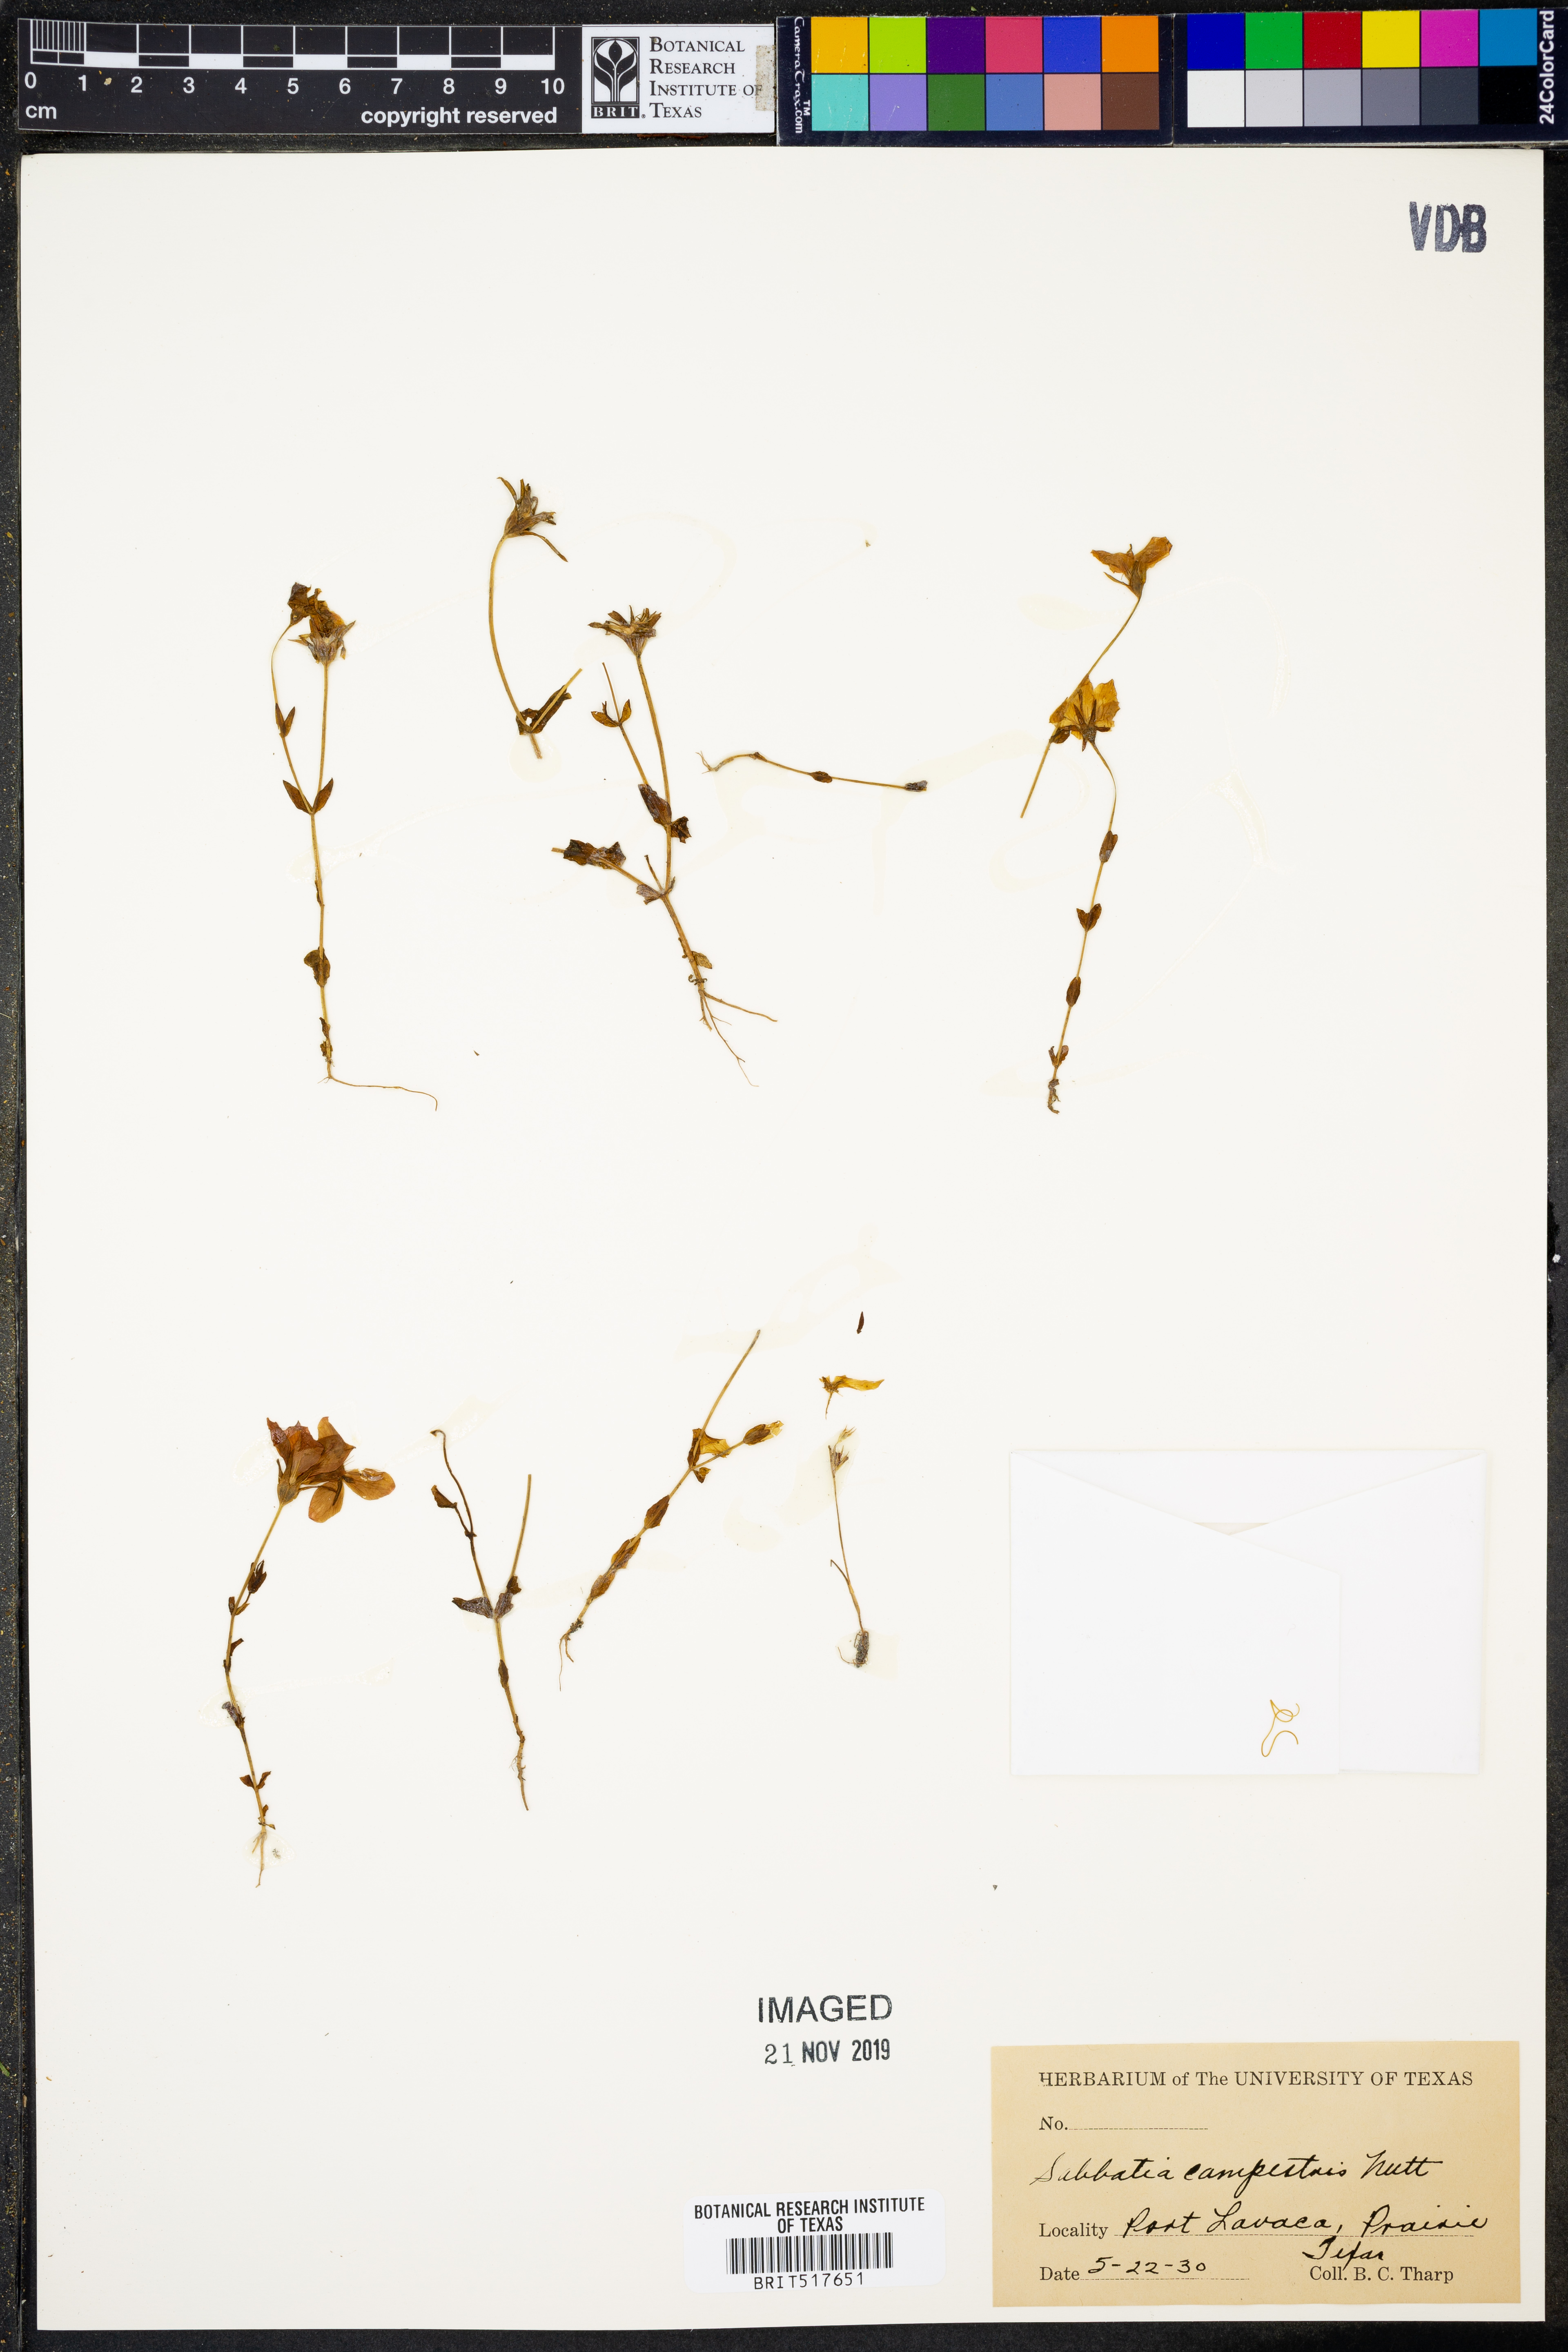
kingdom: Plantae
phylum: Tracheophyta
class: Magnoliopsida
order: Gentianales
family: Gentianaceae
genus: Sabatia
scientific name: Sabatia campestris
